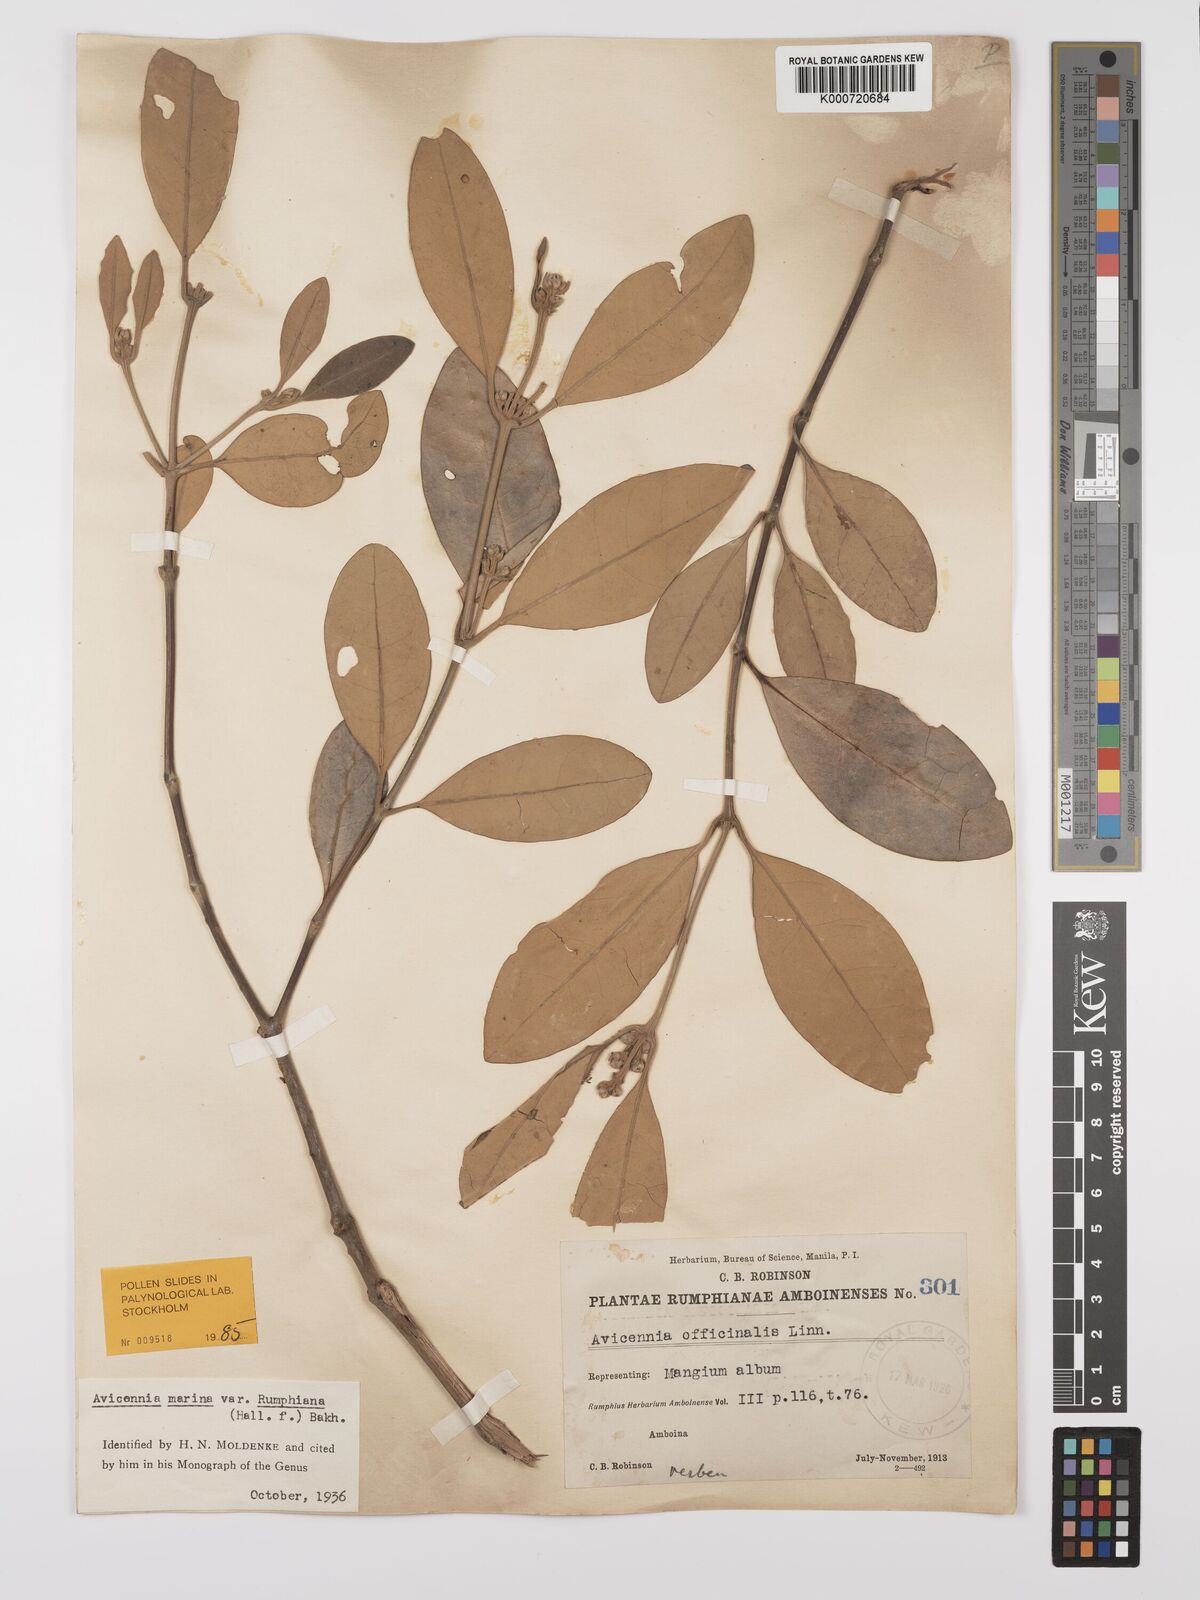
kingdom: Plantae
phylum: Tracheophyta
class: Magnoliopsida
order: Lamiales
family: Acanthaceae
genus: Avicennia
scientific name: Avicennia marina
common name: Gray mangrove
